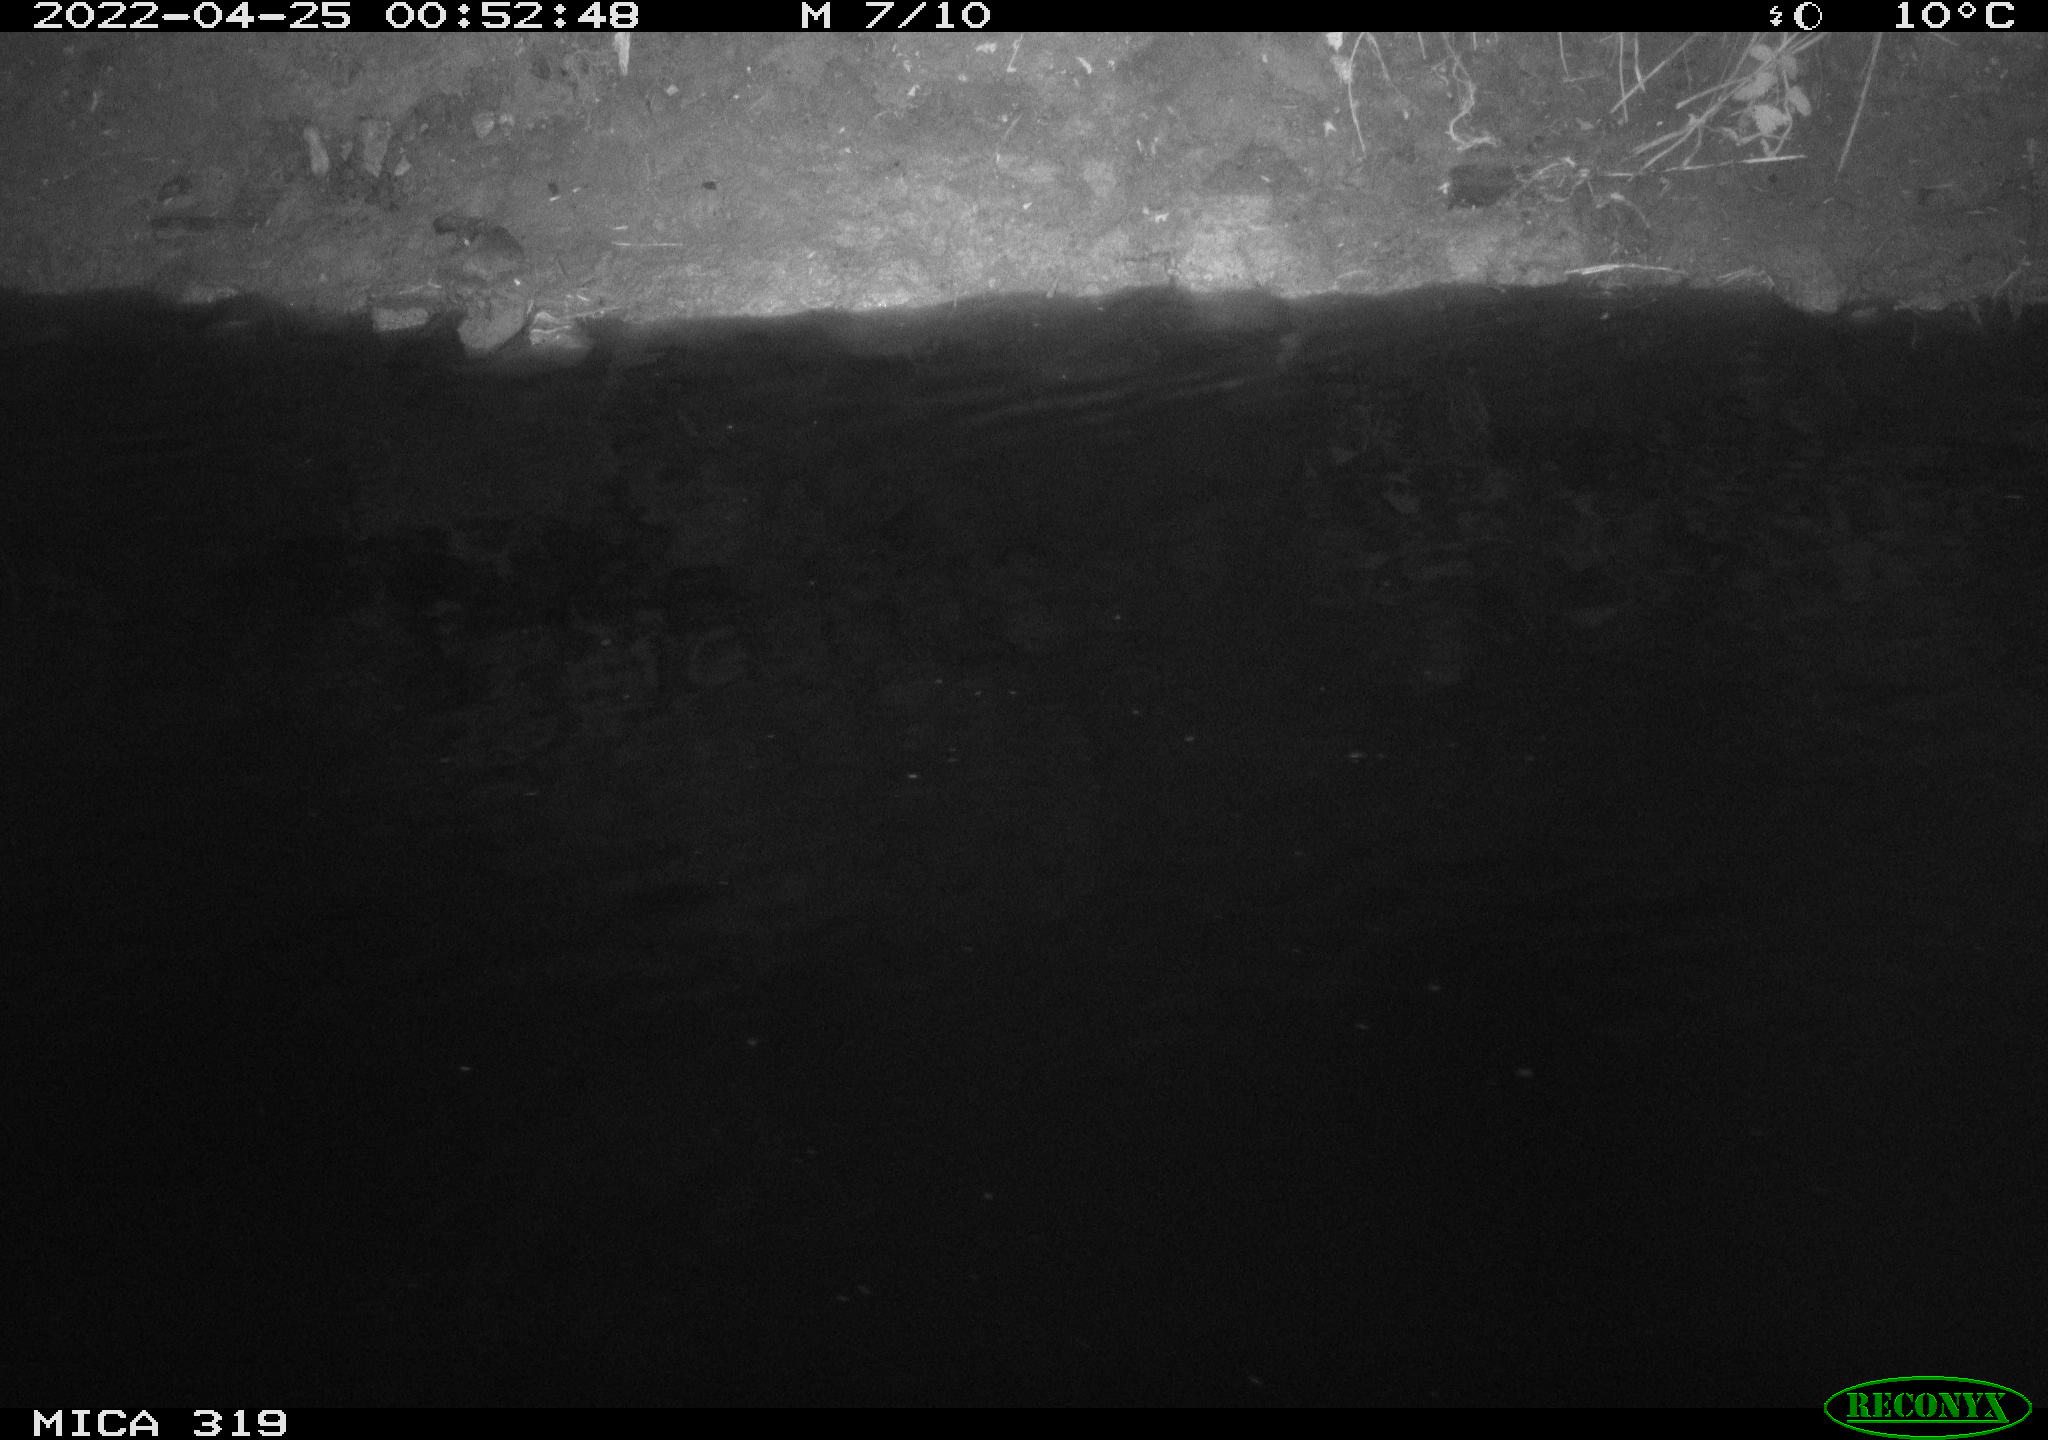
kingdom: Animalia
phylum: Chordata
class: Aves
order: Anseriformes
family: Anatidae
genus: Anas
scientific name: Anas platyrhynchos
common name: Mallard
